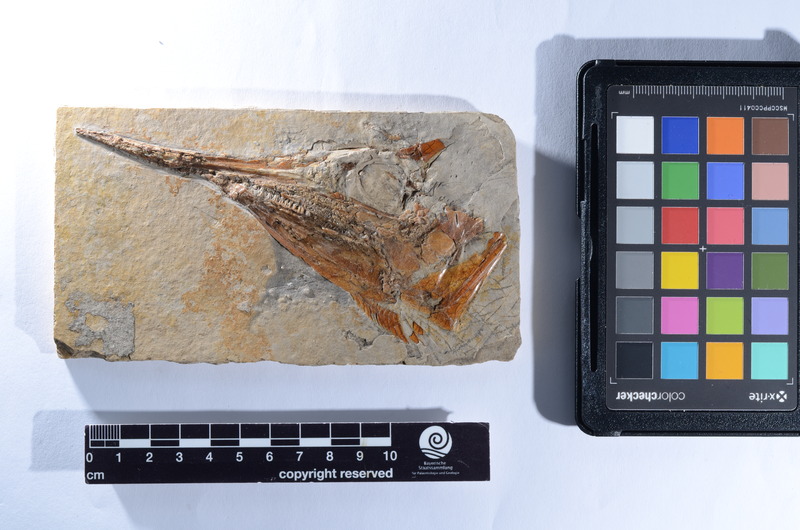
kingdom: Animalia
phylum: Chordata
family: Aspidorhynchidae
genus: Aspidorhynchus
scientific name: Aspidorhynchus acutirostris
